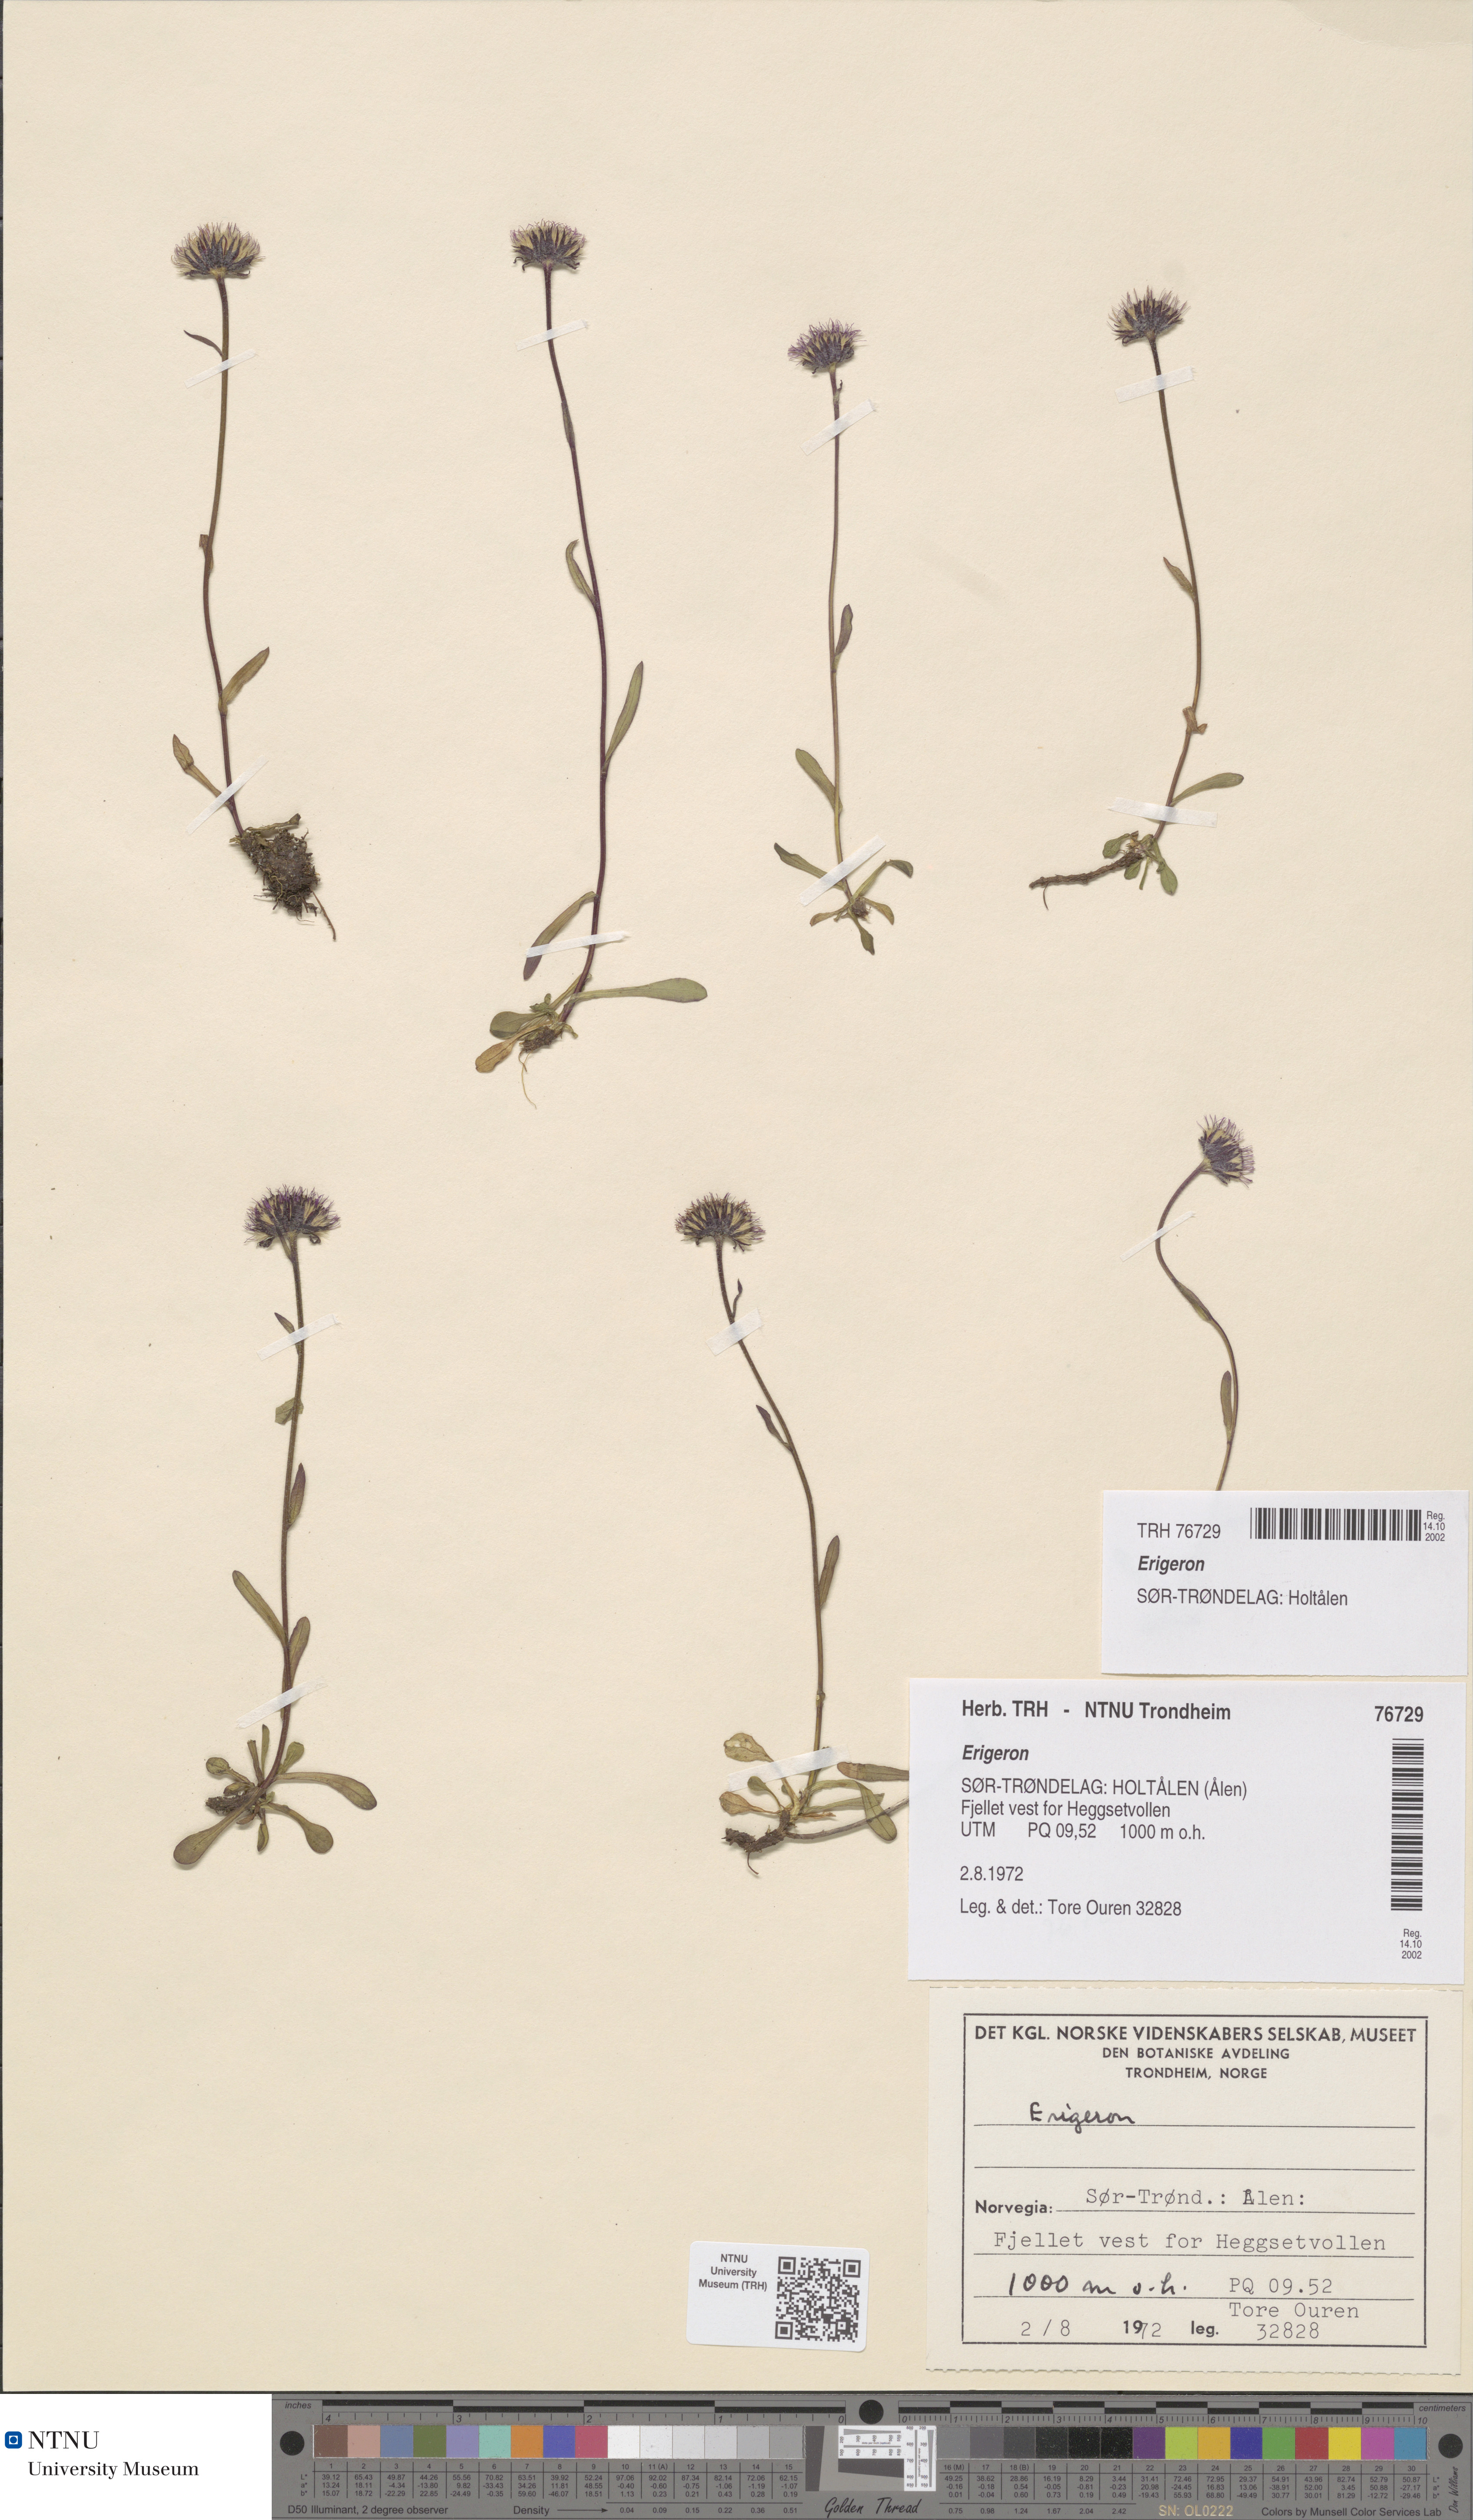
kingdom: Plantae
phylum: Tracheophyta
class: Magnoliopsida
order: Asterales
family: Asteraceae
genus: Erigeron
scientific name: Erigeron uniflorus
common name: Northern daisy
